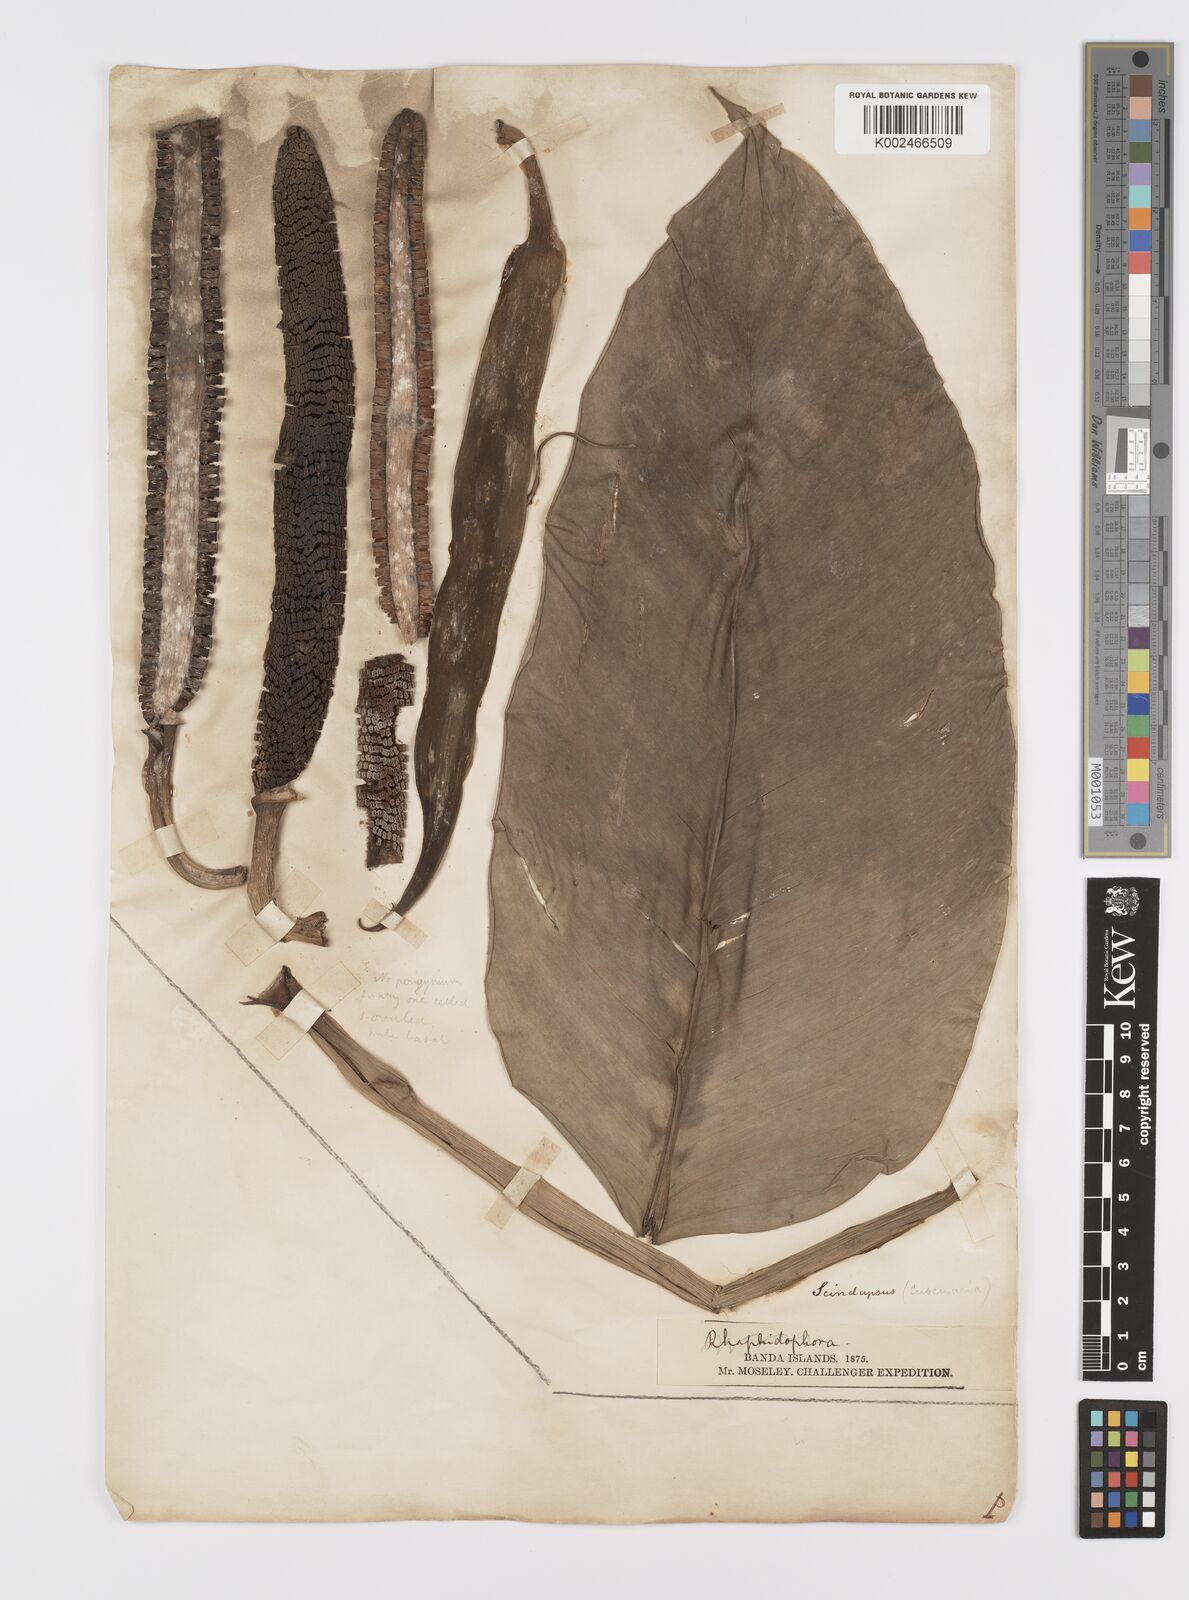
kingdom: Plantae
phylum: Tracheophyta
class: Liliopsida
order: Alismatales
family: Araceae
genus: Scindapsus
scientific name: Scindapsus cuscuaria
